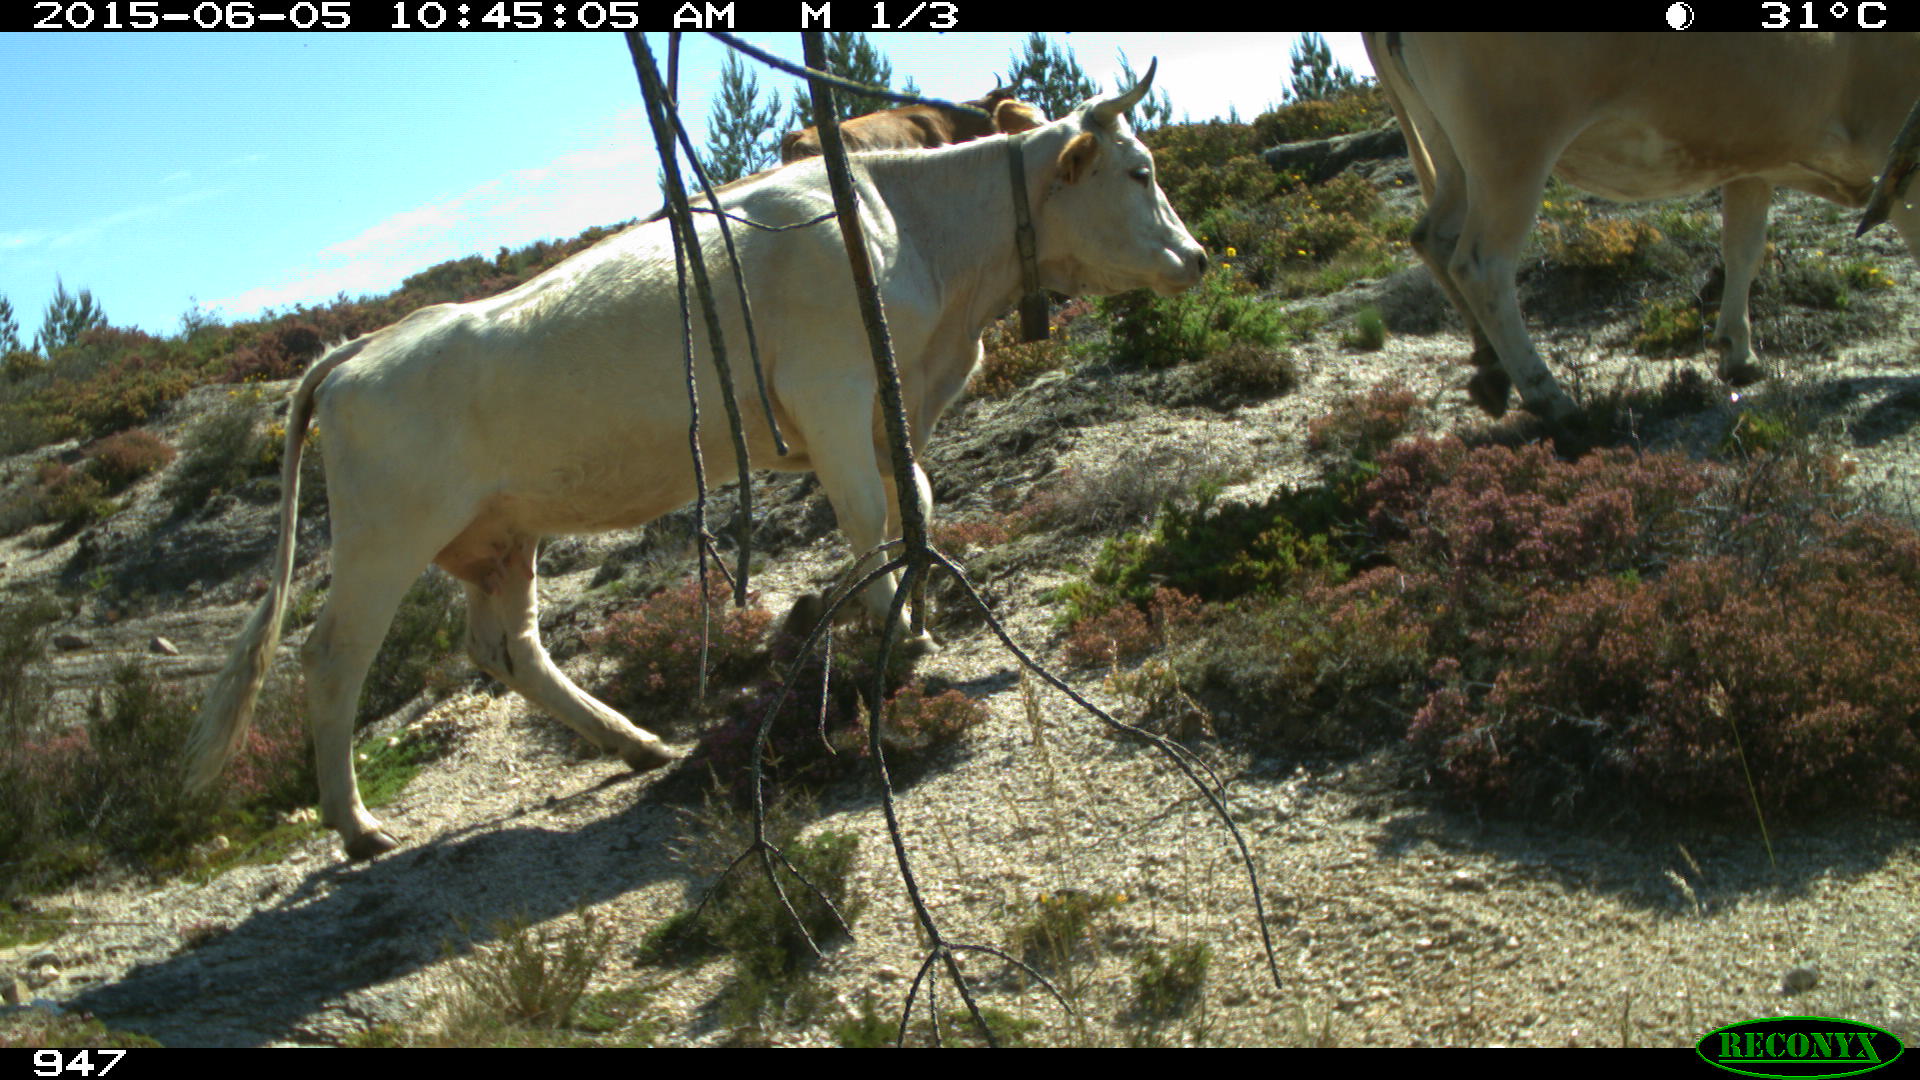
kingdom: Animalia
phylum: Chordata
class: Mammalia
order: Artiodactyla
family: Bovidae
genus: Bos
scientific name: Bos taurus
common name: Domesticated cattle
